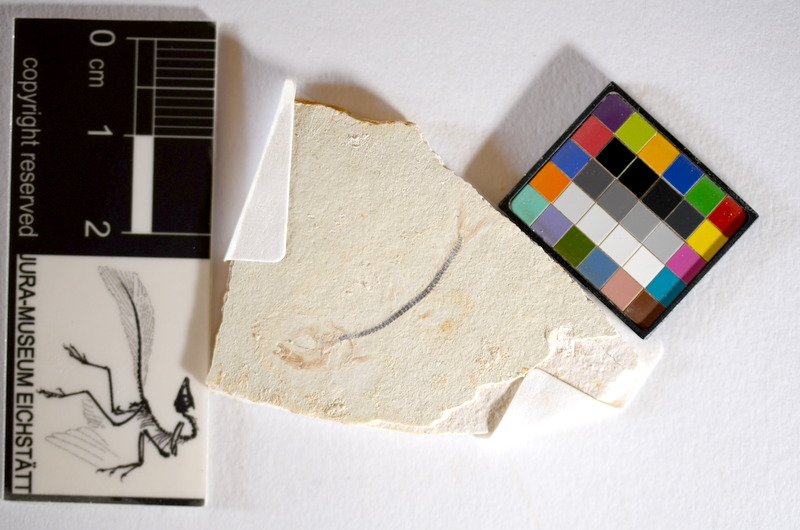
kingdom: Animalia
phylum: Chordata
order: Salmoniformes
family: Orthogonikleithridae
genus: Orthogonikleithrus
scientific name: Orthogonikleithrus hoelli
